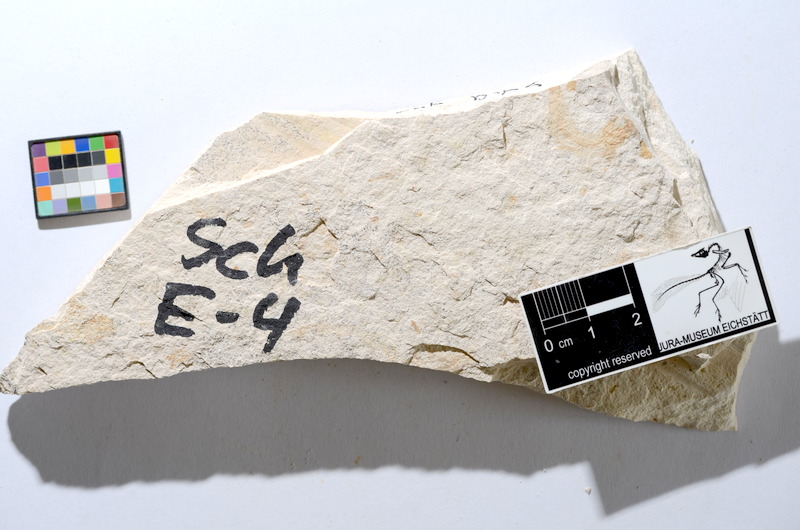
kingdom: Animalia
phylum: Chordata
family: Ascalaboidae
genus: Tharsis
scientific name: Tharsis dubius
